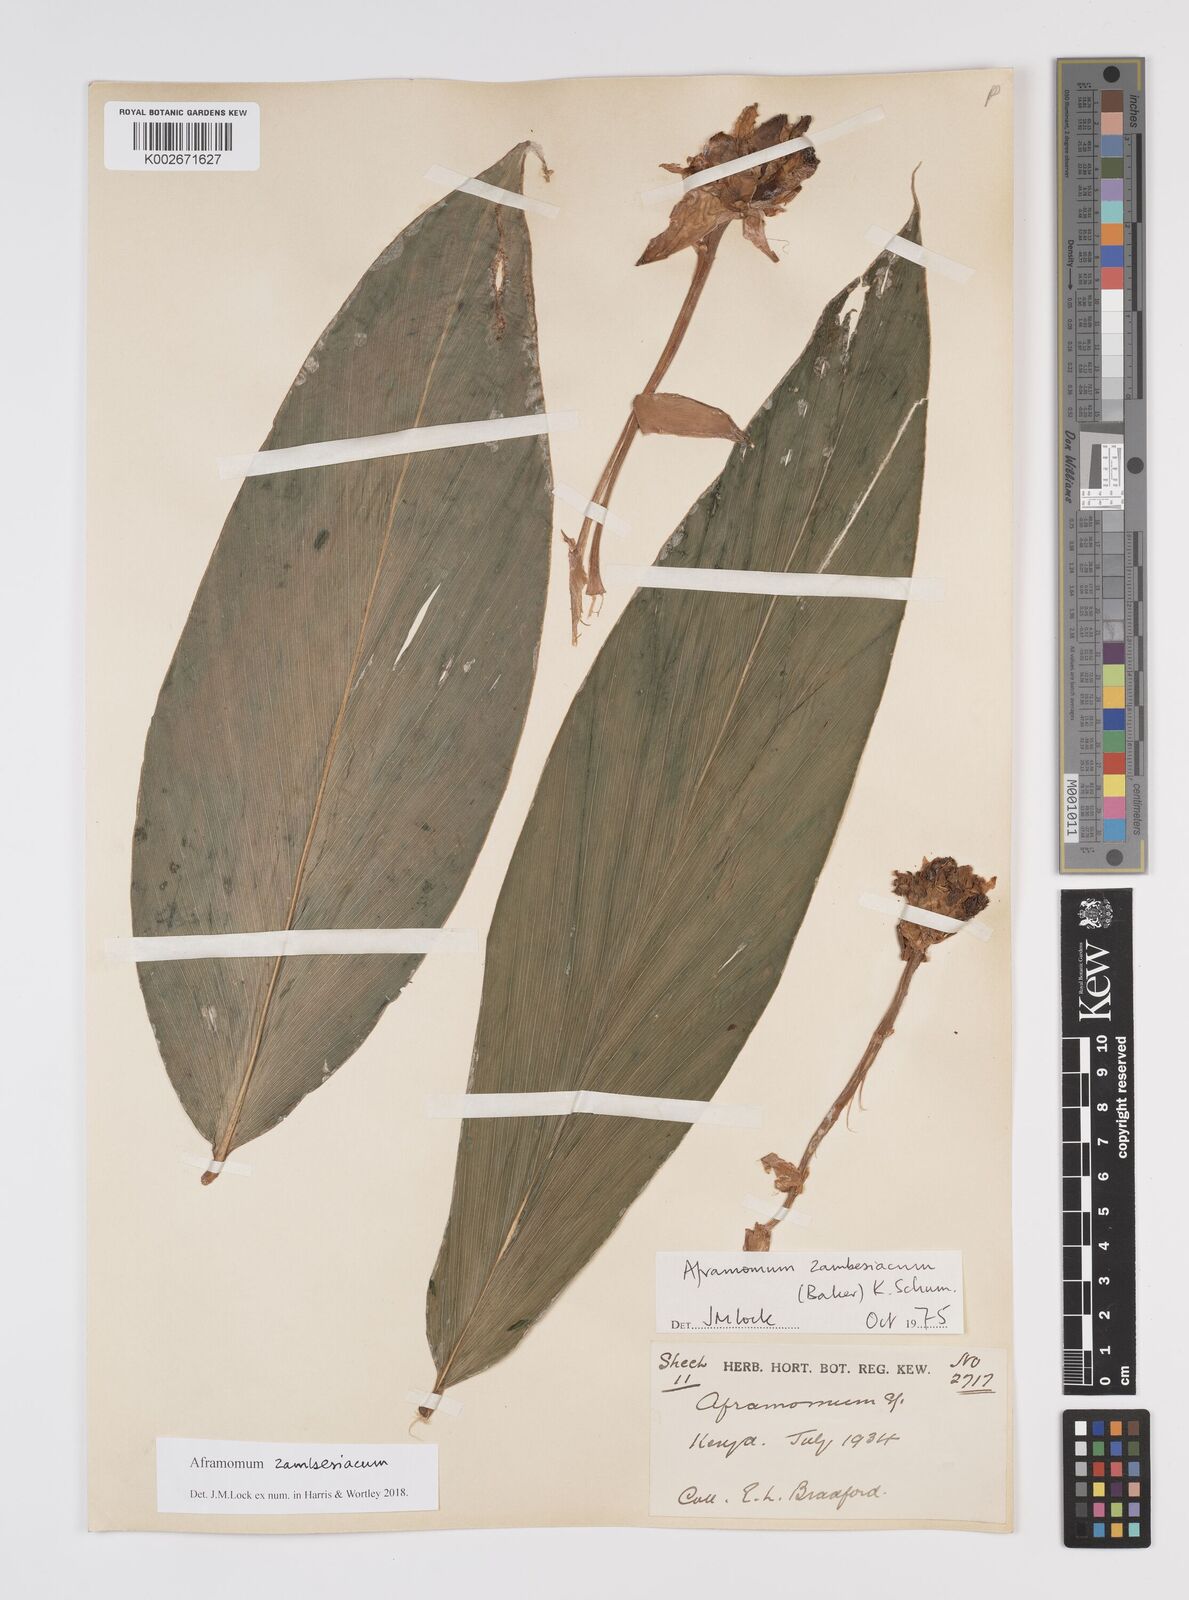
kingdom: Plantae
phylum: Tracheophyta
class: Liliopsida
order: Zingiberales
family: Zingiberaceae
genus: Aframomum
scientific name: Aframomum zambesiacum
